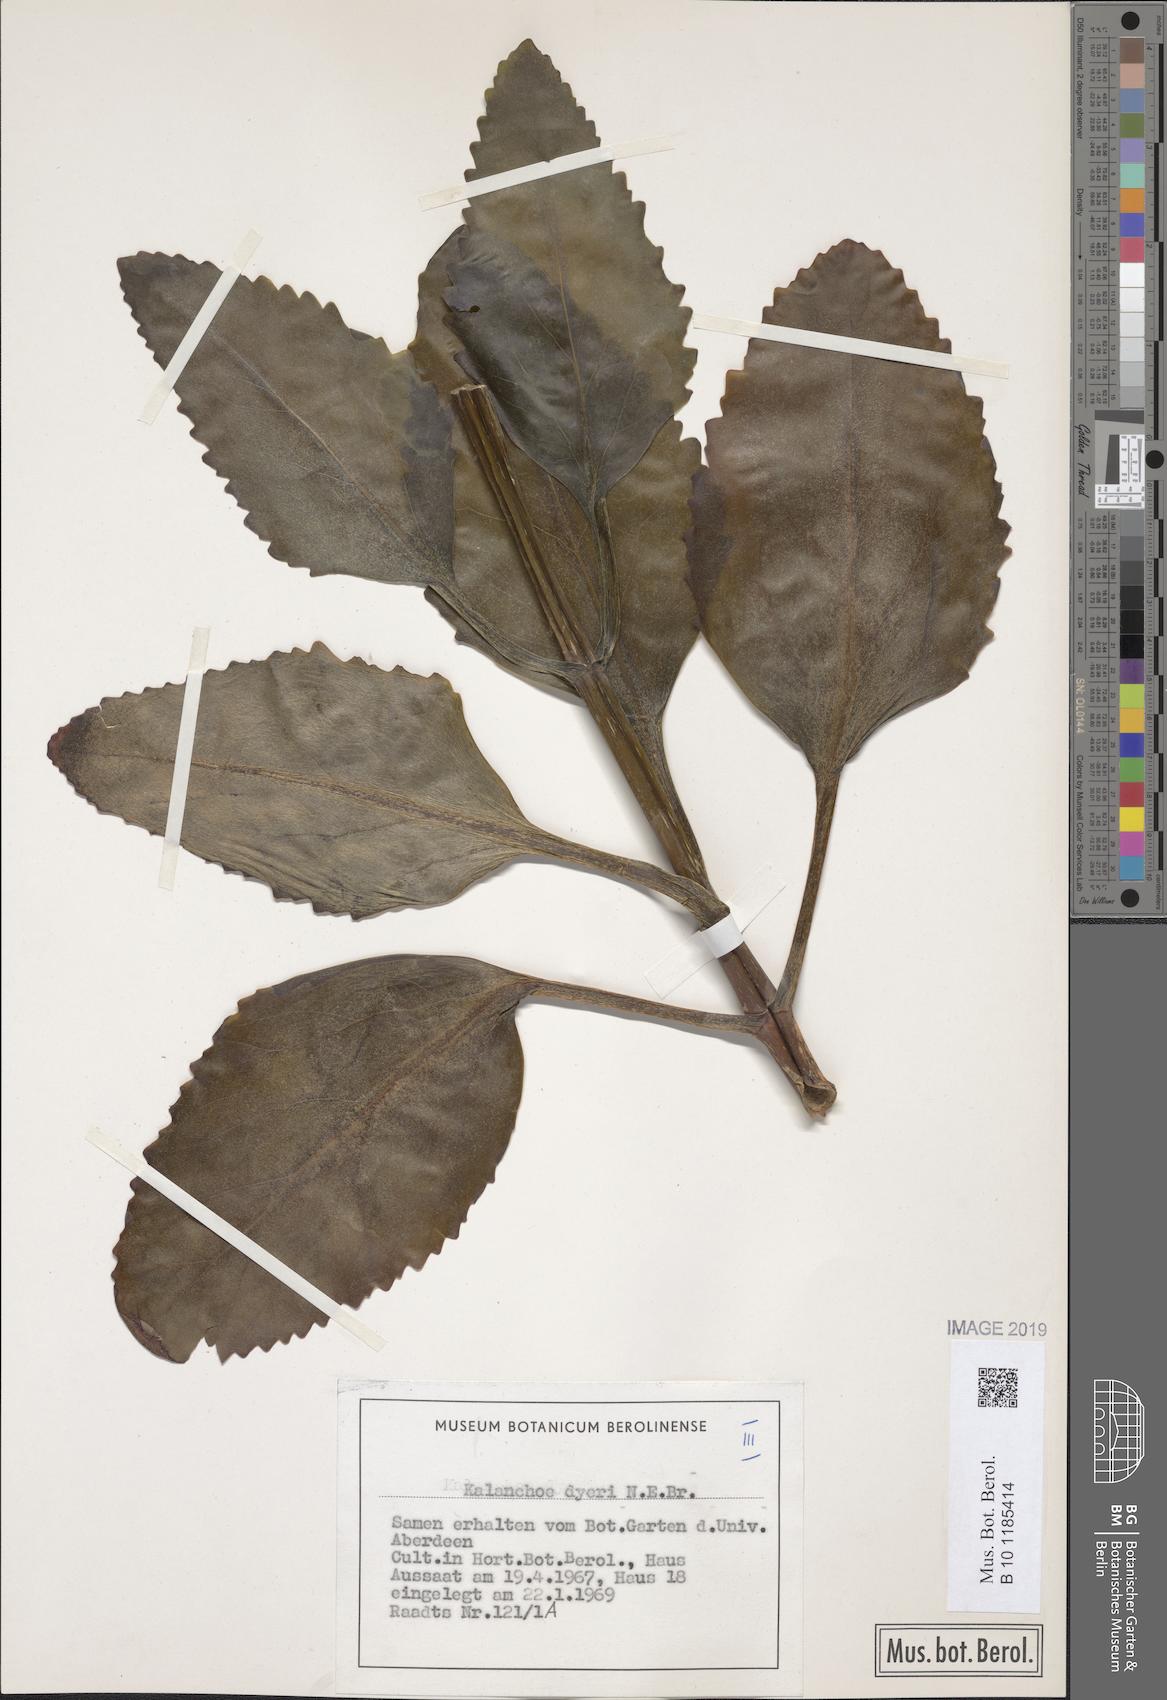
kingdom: Plantae
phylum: Tracheophyta
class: Magnoliopsida
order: Saxifragales
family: Crassulaceae
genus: Kalanchoe
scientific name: Kalanchoe dyeri
